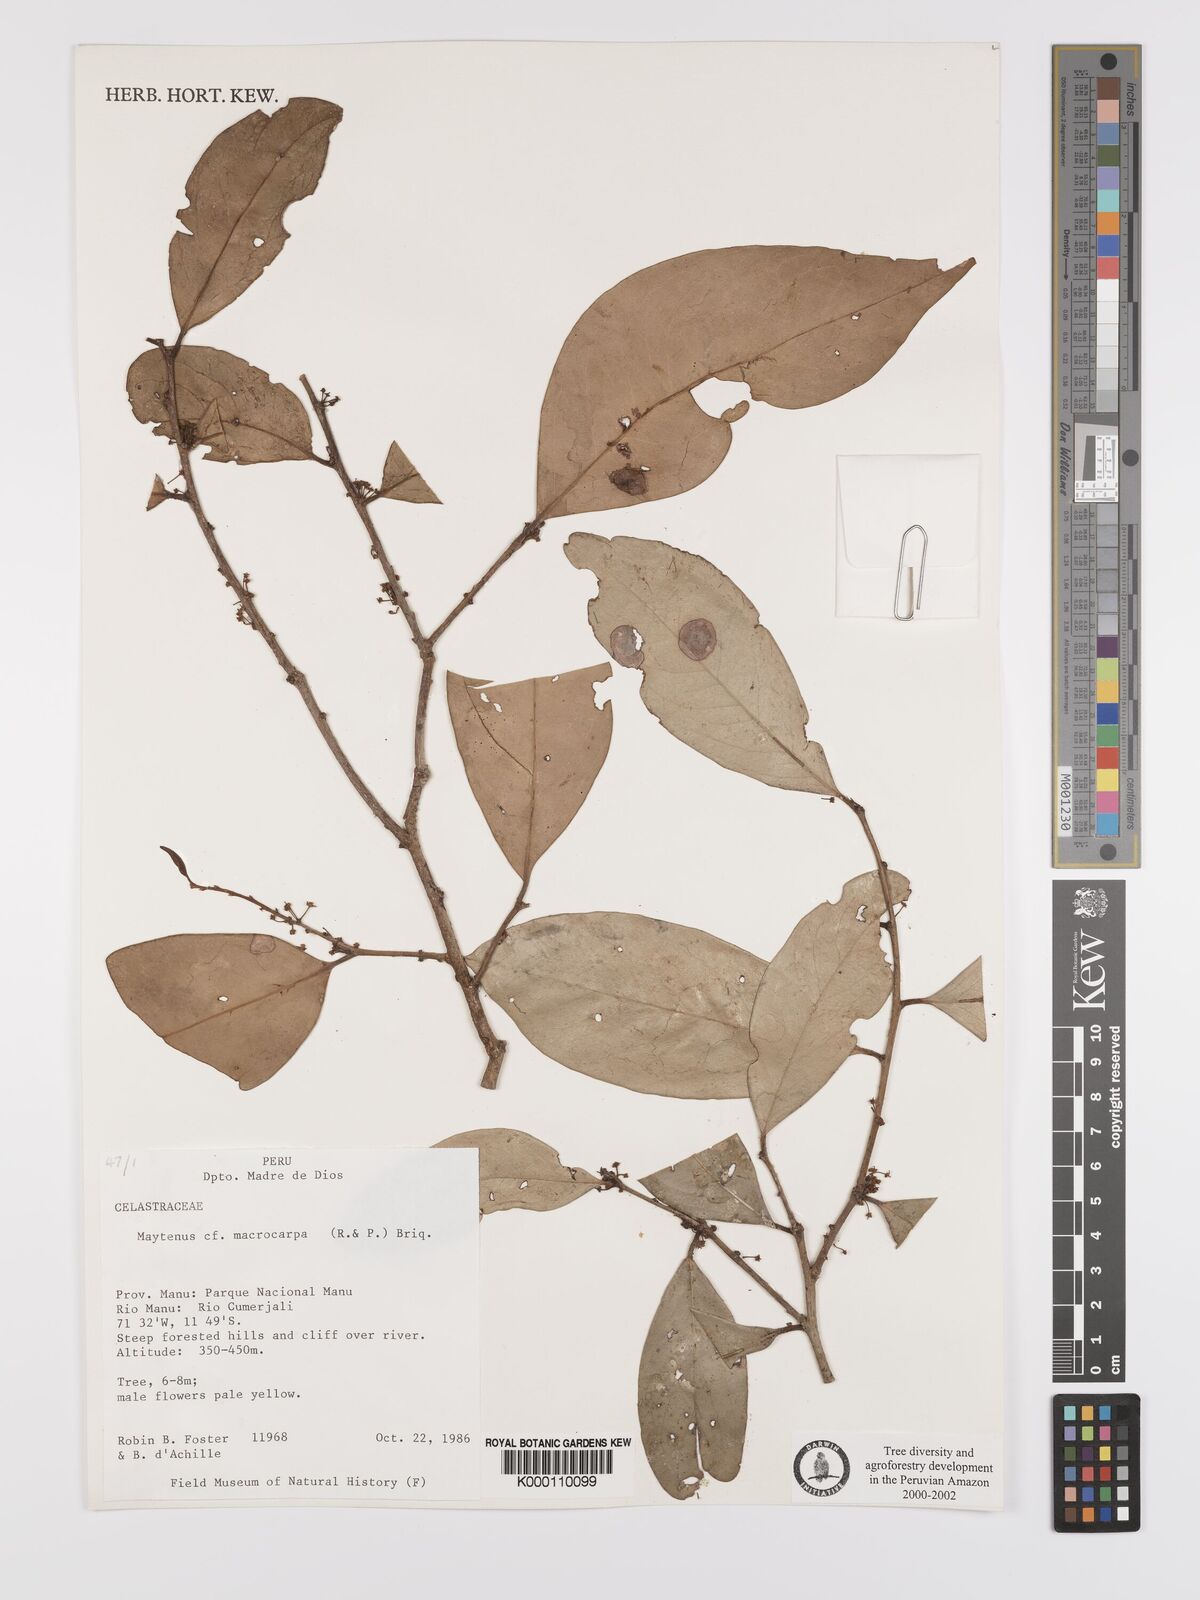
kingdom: Plantae
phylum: Tracheophyta
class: Magnoliopsida
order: Celastrales
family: Celastraceae
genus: Monteverdia
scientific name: Monteverdia macrocarpa
